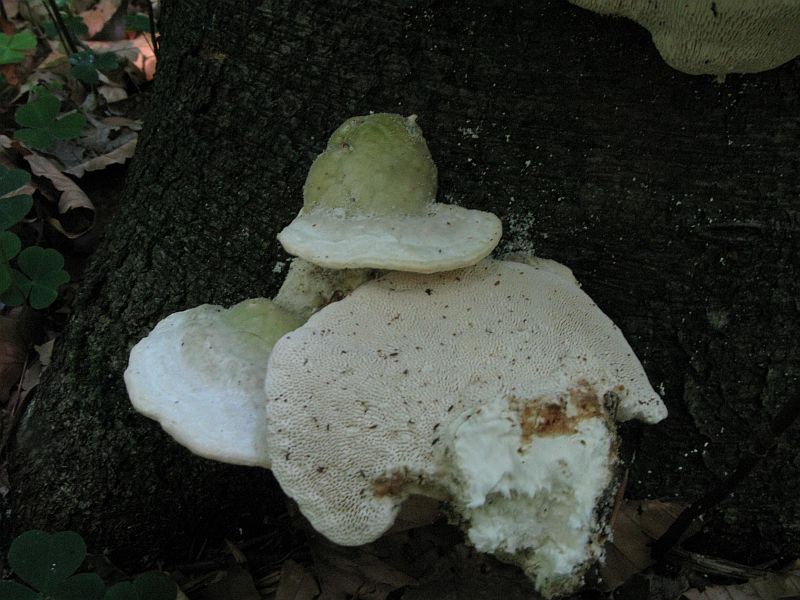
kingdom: Fungi
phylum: Basidiomycota
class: Agaricomycetes
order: Polyporales
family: Polyporaceae
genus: Trametes
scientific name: Trametes gibbosa
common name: puklet læderporesvamp
